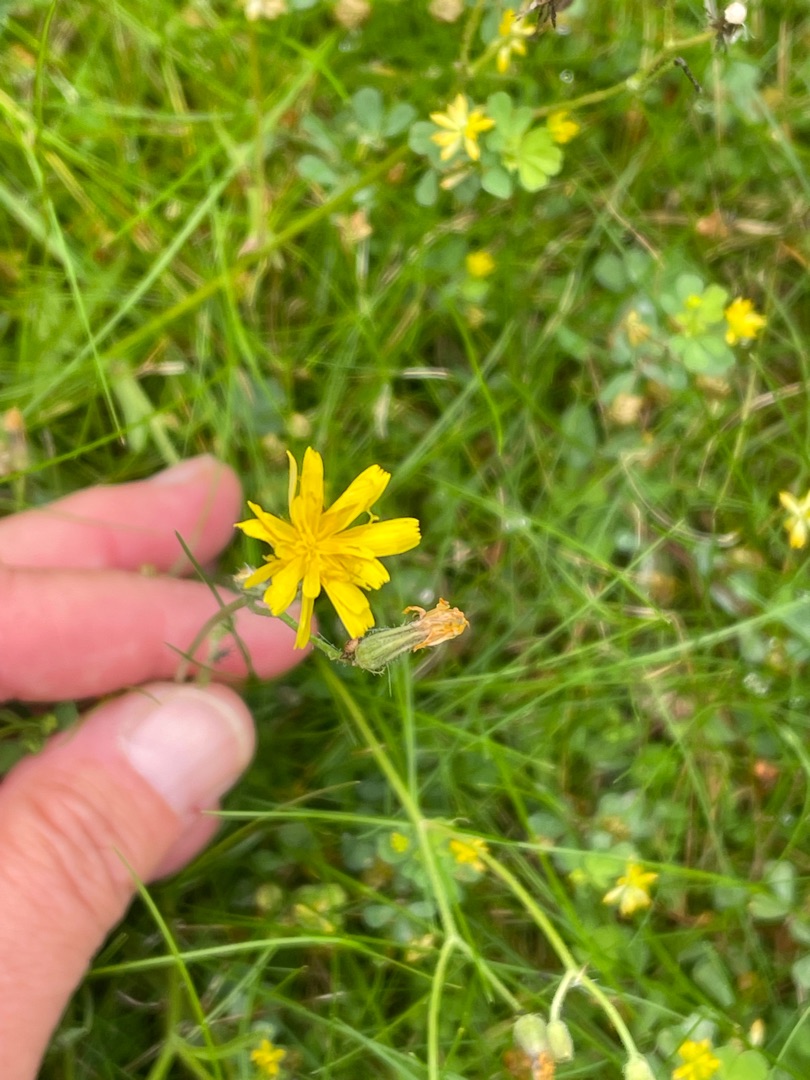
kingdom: Plantae
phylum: Tracheophyta
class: Magnoliopsida
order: Asterales
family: Asteraceae
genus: Crepis
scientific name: Crepis capillaris
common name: Grøn høgeskæg
